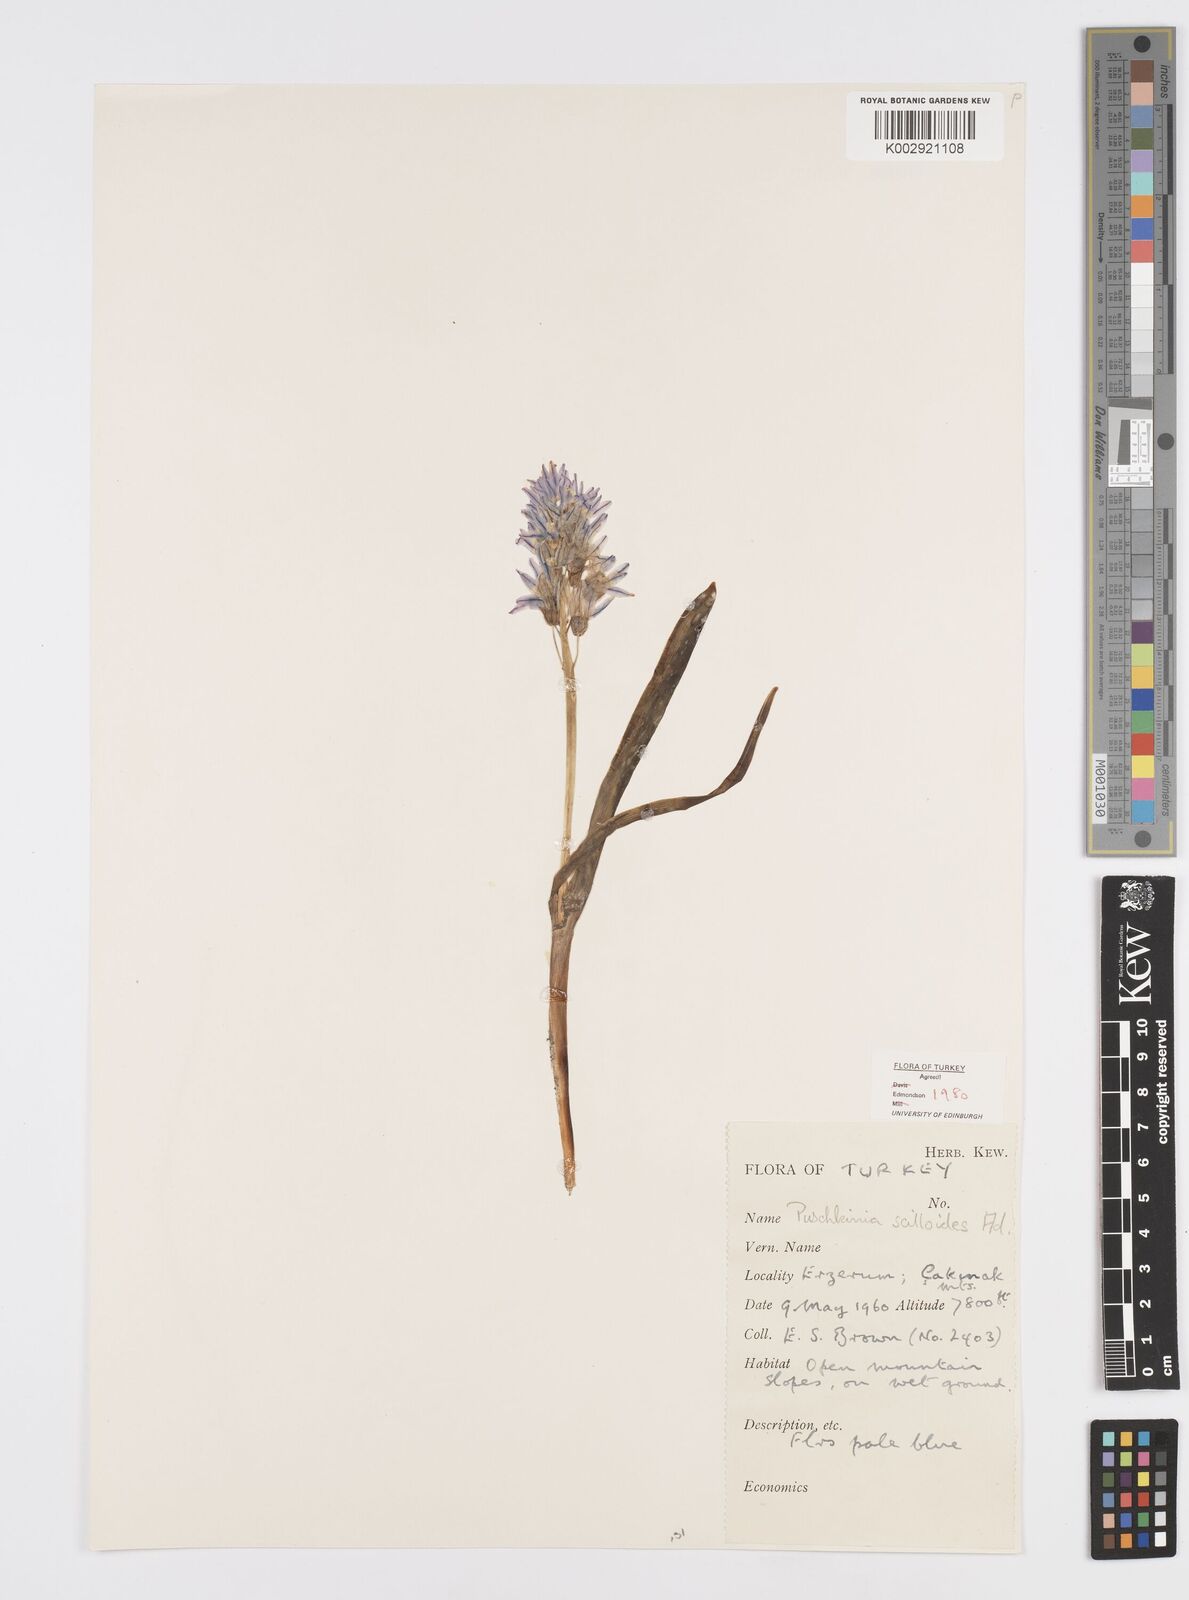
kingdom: Plantae
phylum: Tracheophyta
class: Liliopsida
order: Asparagales
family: Asparagaceae
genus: Puschkinia
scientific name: Puschkinia scilloides
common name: Striped squill
